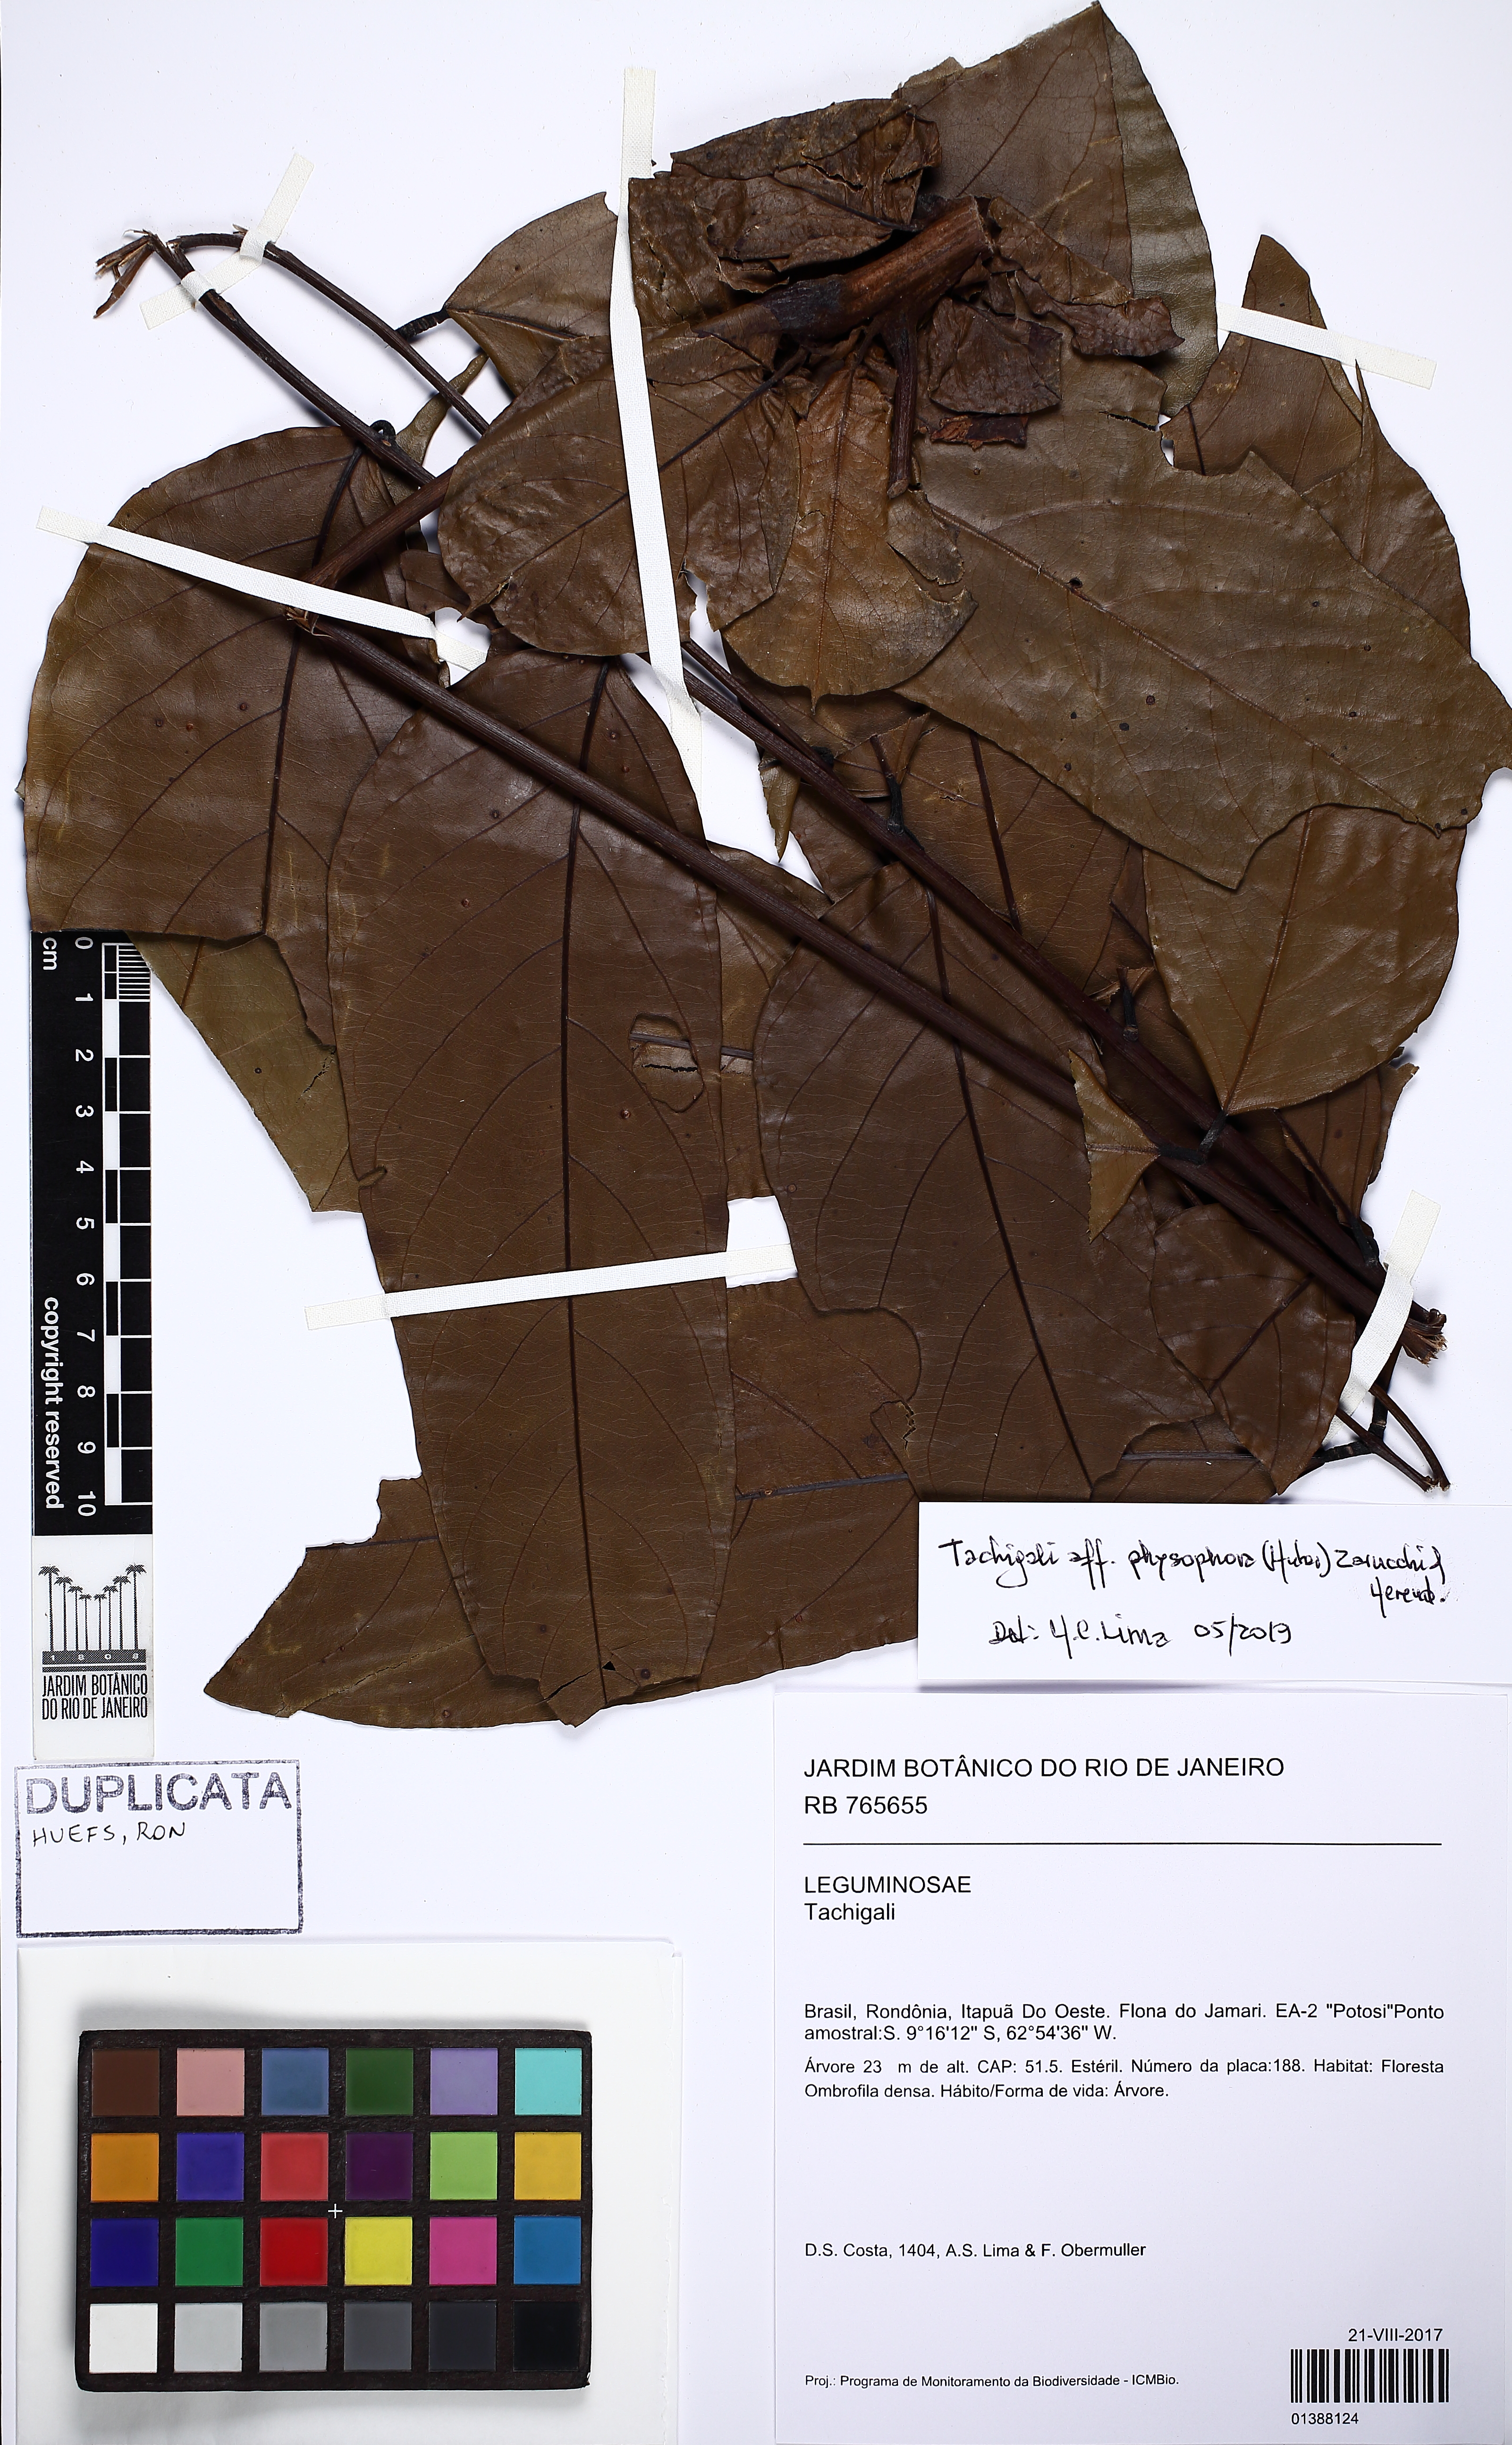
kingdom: Plantae
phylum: Tracheophyta
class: Magnoliopsida
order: Fabales
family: Fabaceae
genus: Tachigali
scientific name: Tachigali physophora
